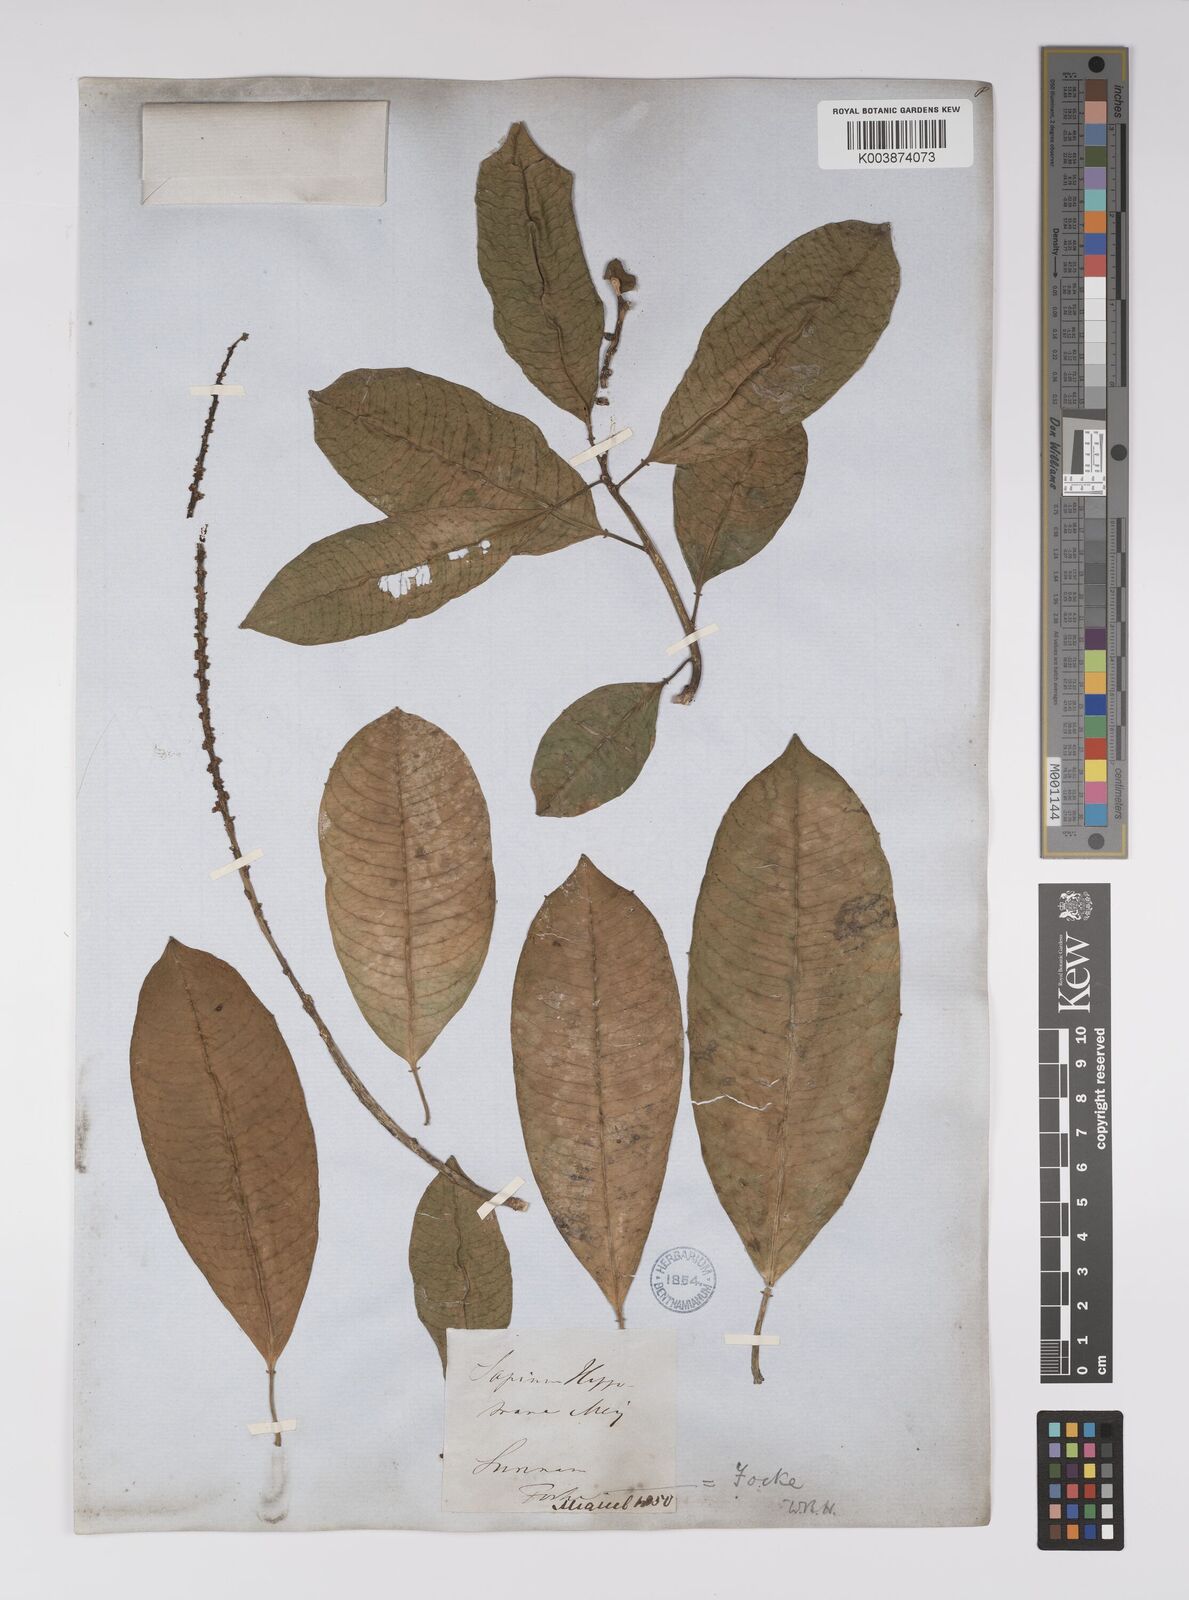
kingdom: Plantae
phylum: Tracheophyta
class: Magnoliopsida
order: Malpighiales
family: Euphorbiaceae
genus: Sapium
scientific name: Sapium glandulosum
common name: Milktree
